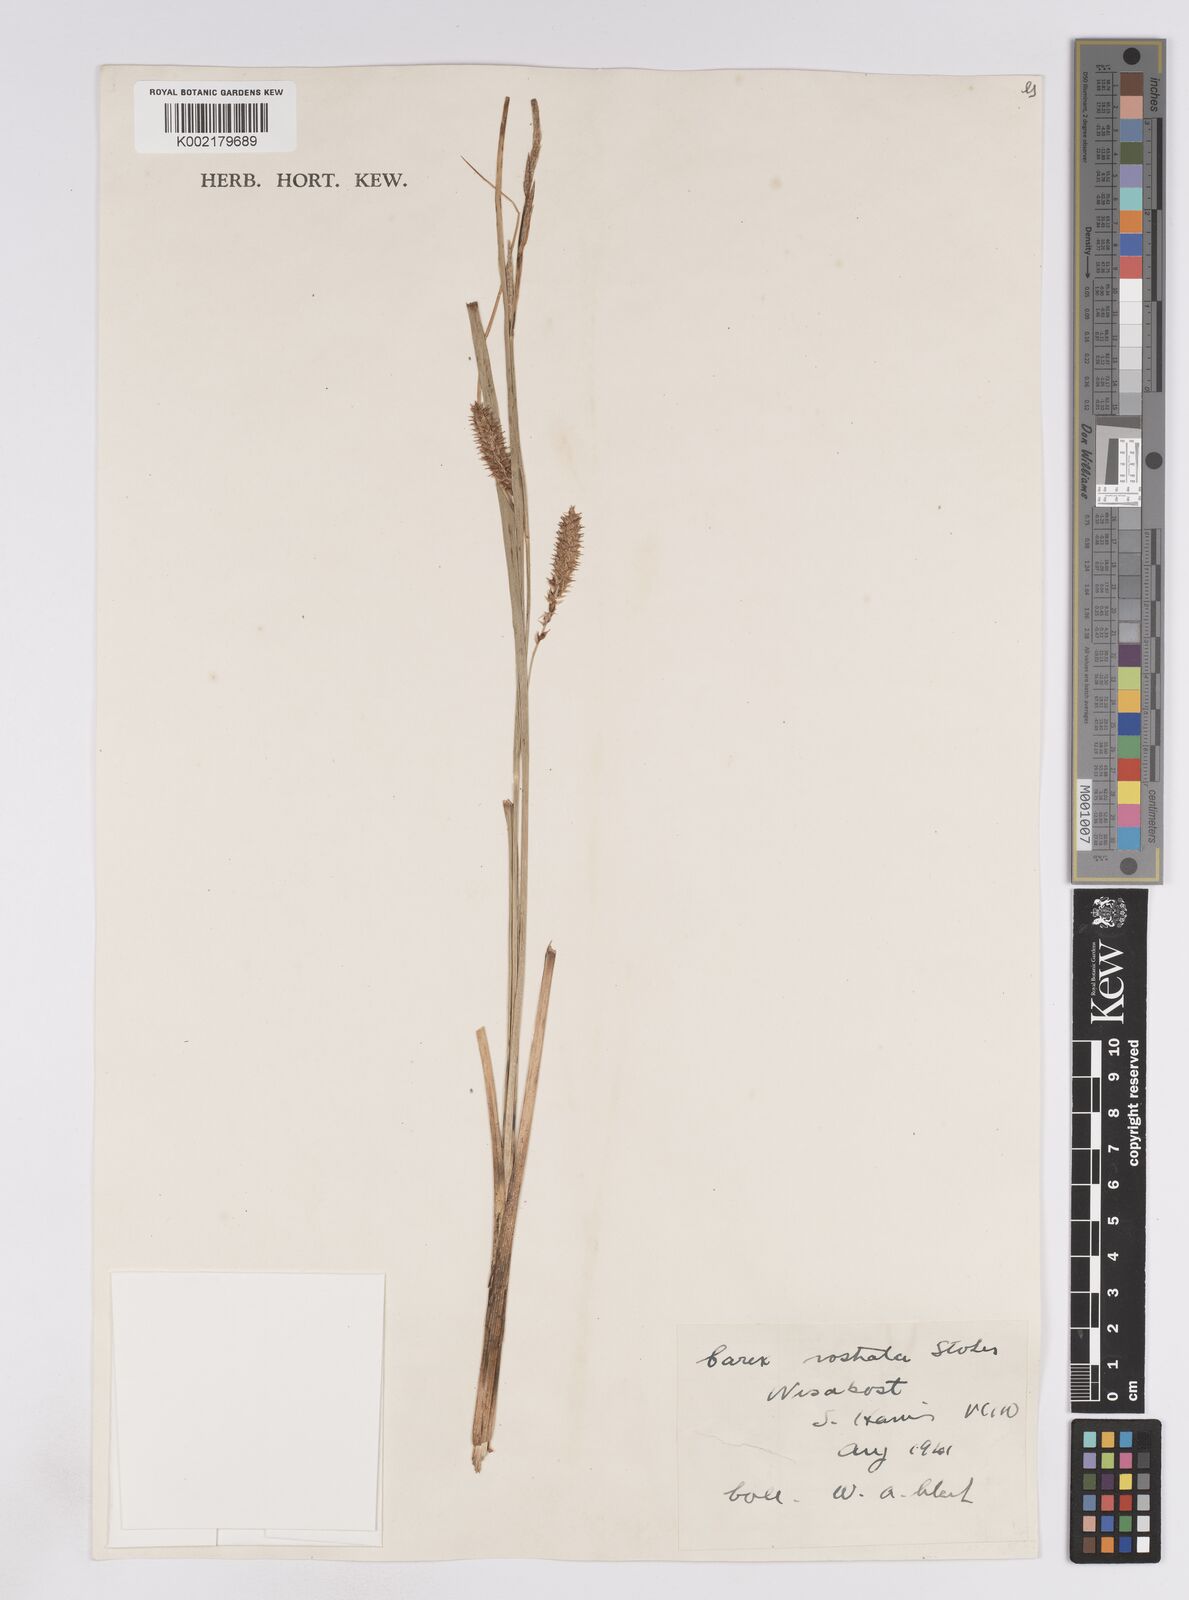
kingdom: Plantae
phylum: Tracheophyta
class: Liliopsida
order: Poales
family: Cyperaceae
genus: Carex
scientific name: Carex rostrata
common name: Bottle sedge
